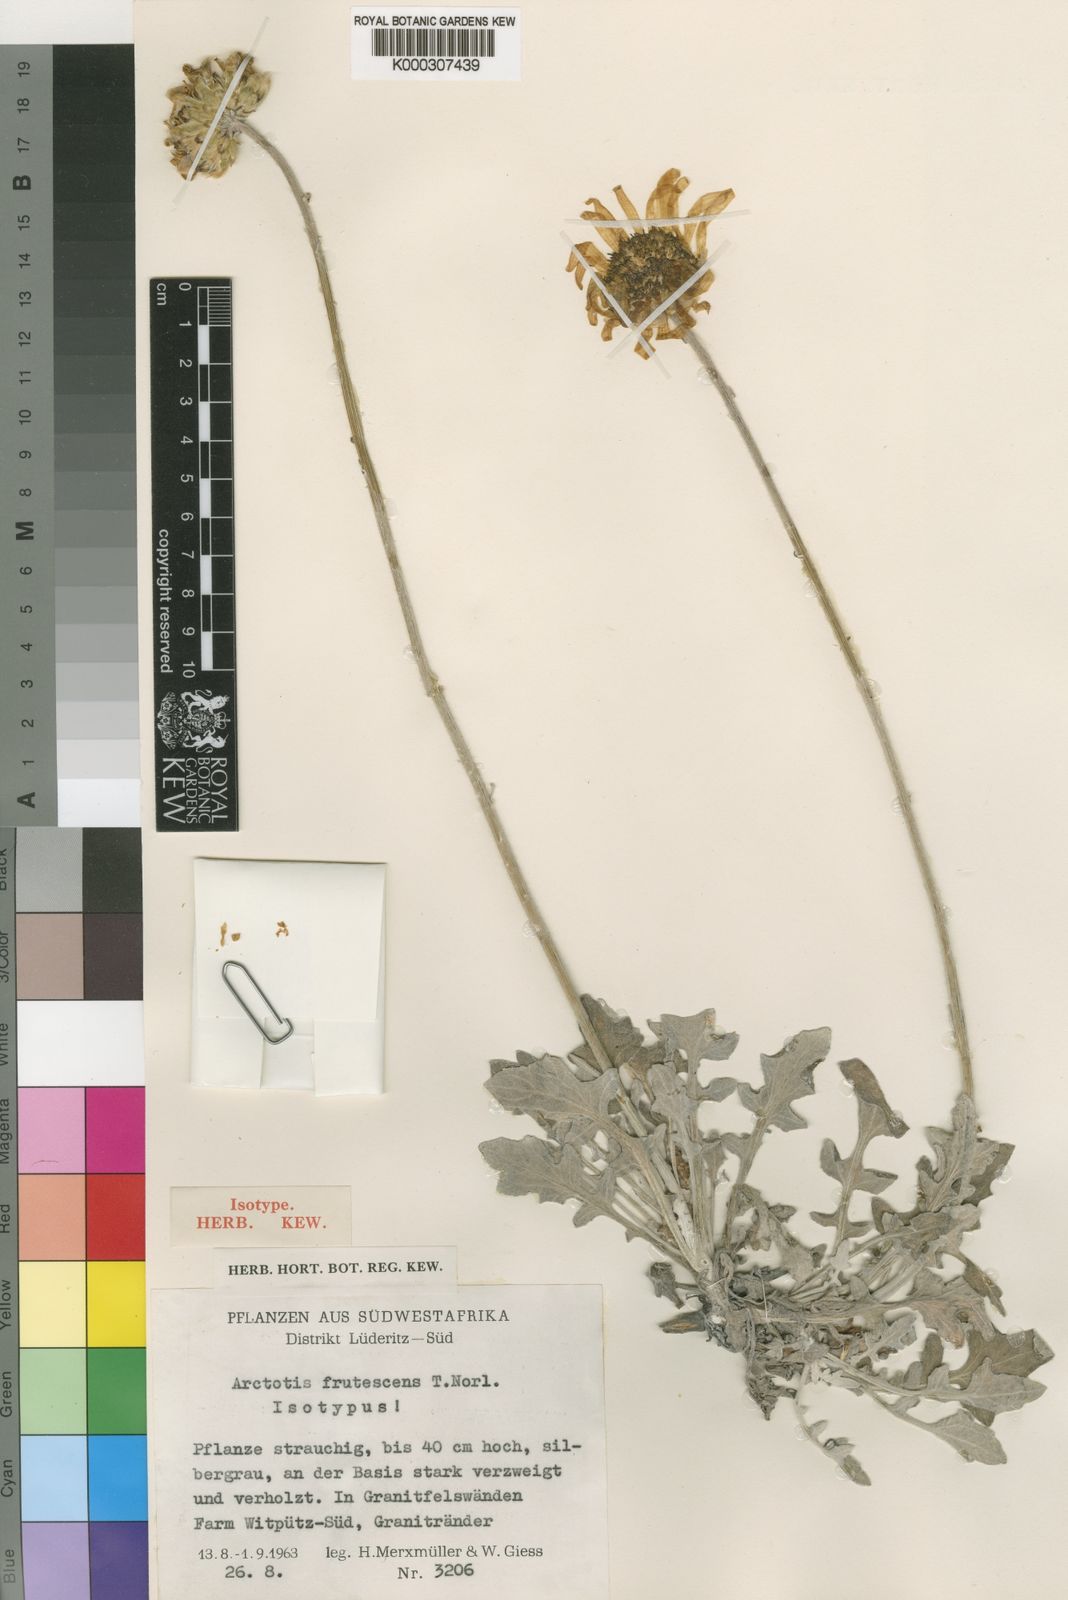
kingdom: Plantae
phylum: Tracheophyta
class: Magnoliopsida
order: Asterales
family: Asteraceae
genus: Arctotis
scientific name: Arctotis frutescens
